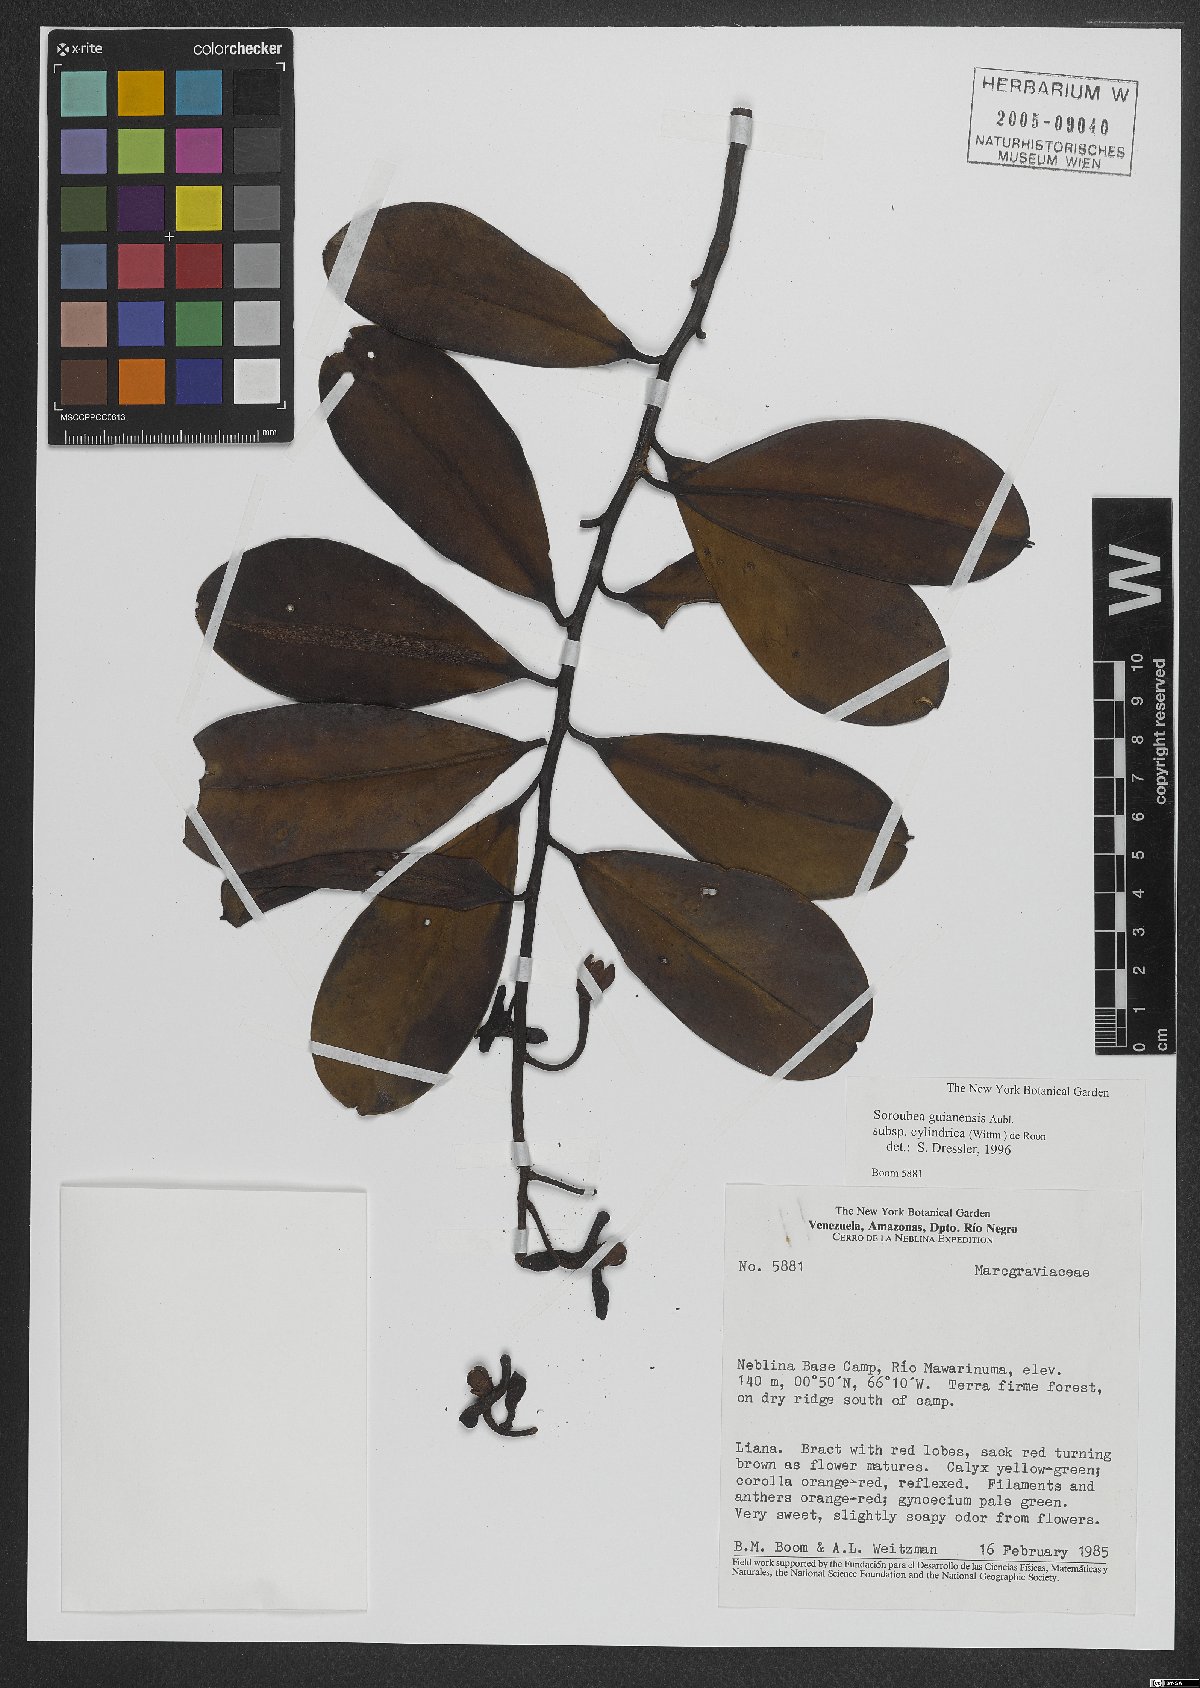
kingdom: Plantae
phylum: Tracheophyta
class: Magnoliopsida
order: Ericales
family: Marcgraviaceae
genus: Souroubea
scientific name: Souroubea guianensis
